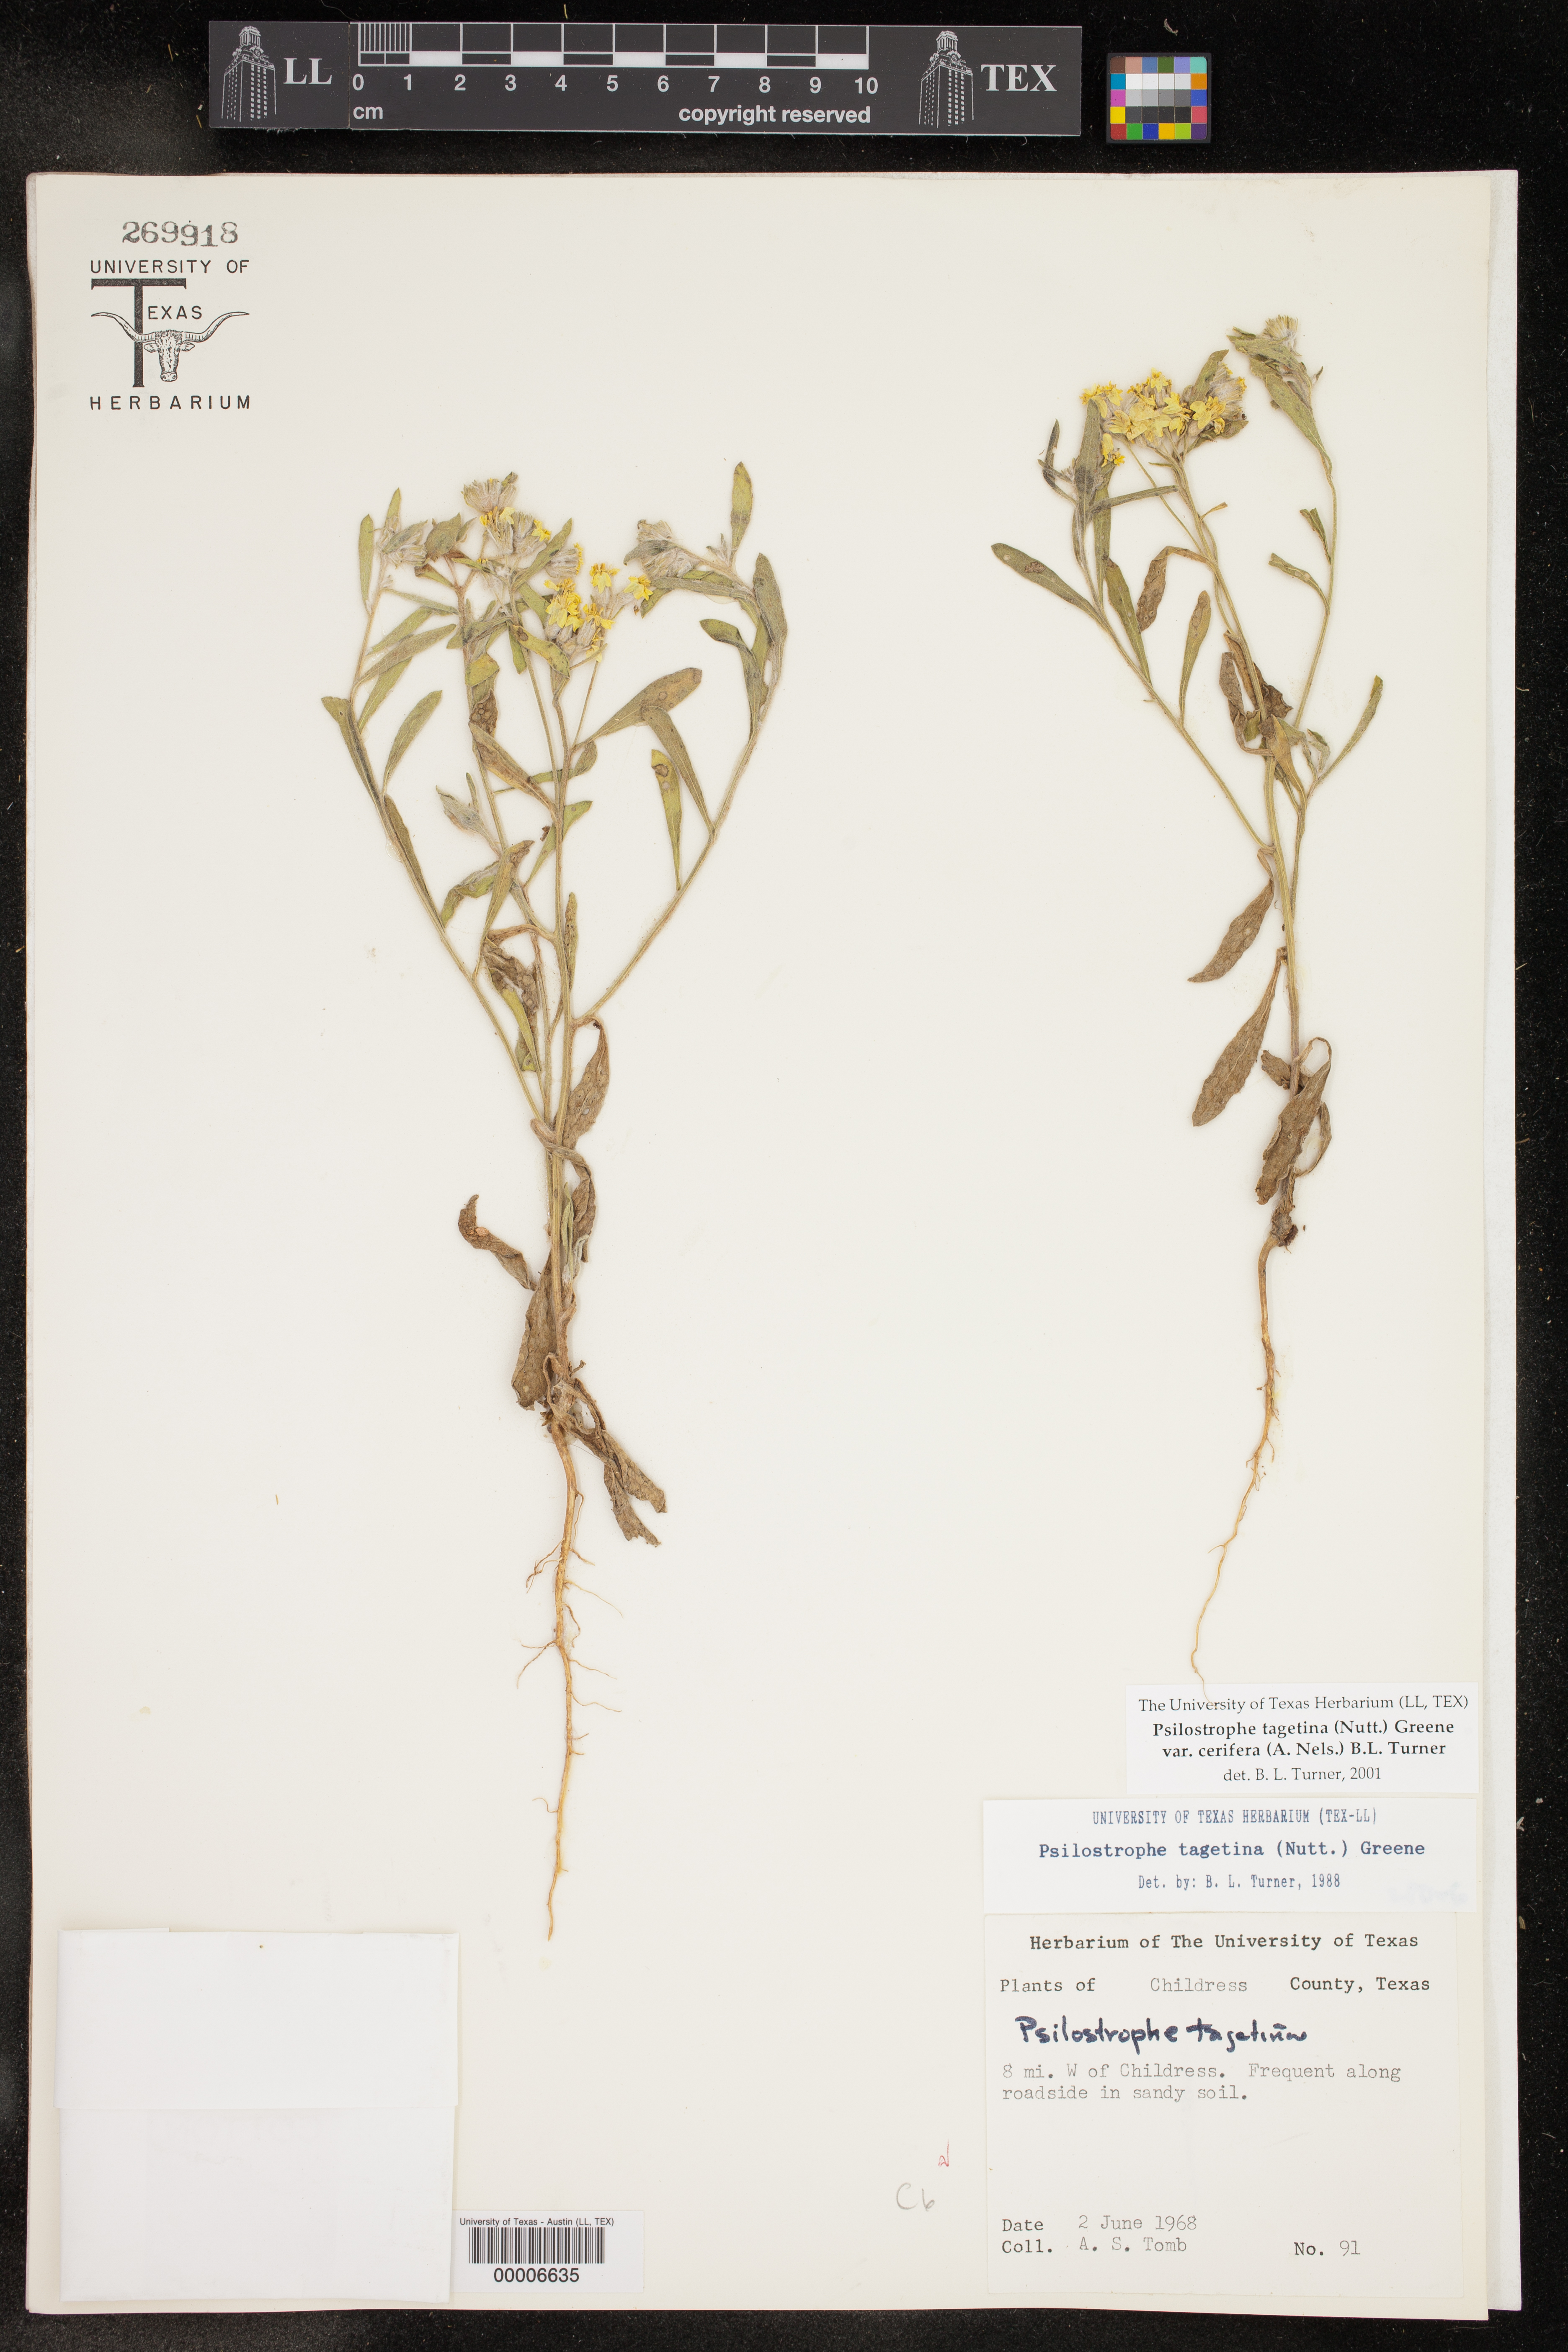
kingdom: Plantae
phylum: Tracheophyta
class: Magnoliopsida
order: Asterales
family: Asteraceae
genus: Psilostrophe
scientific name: Psilostrophe villosa
